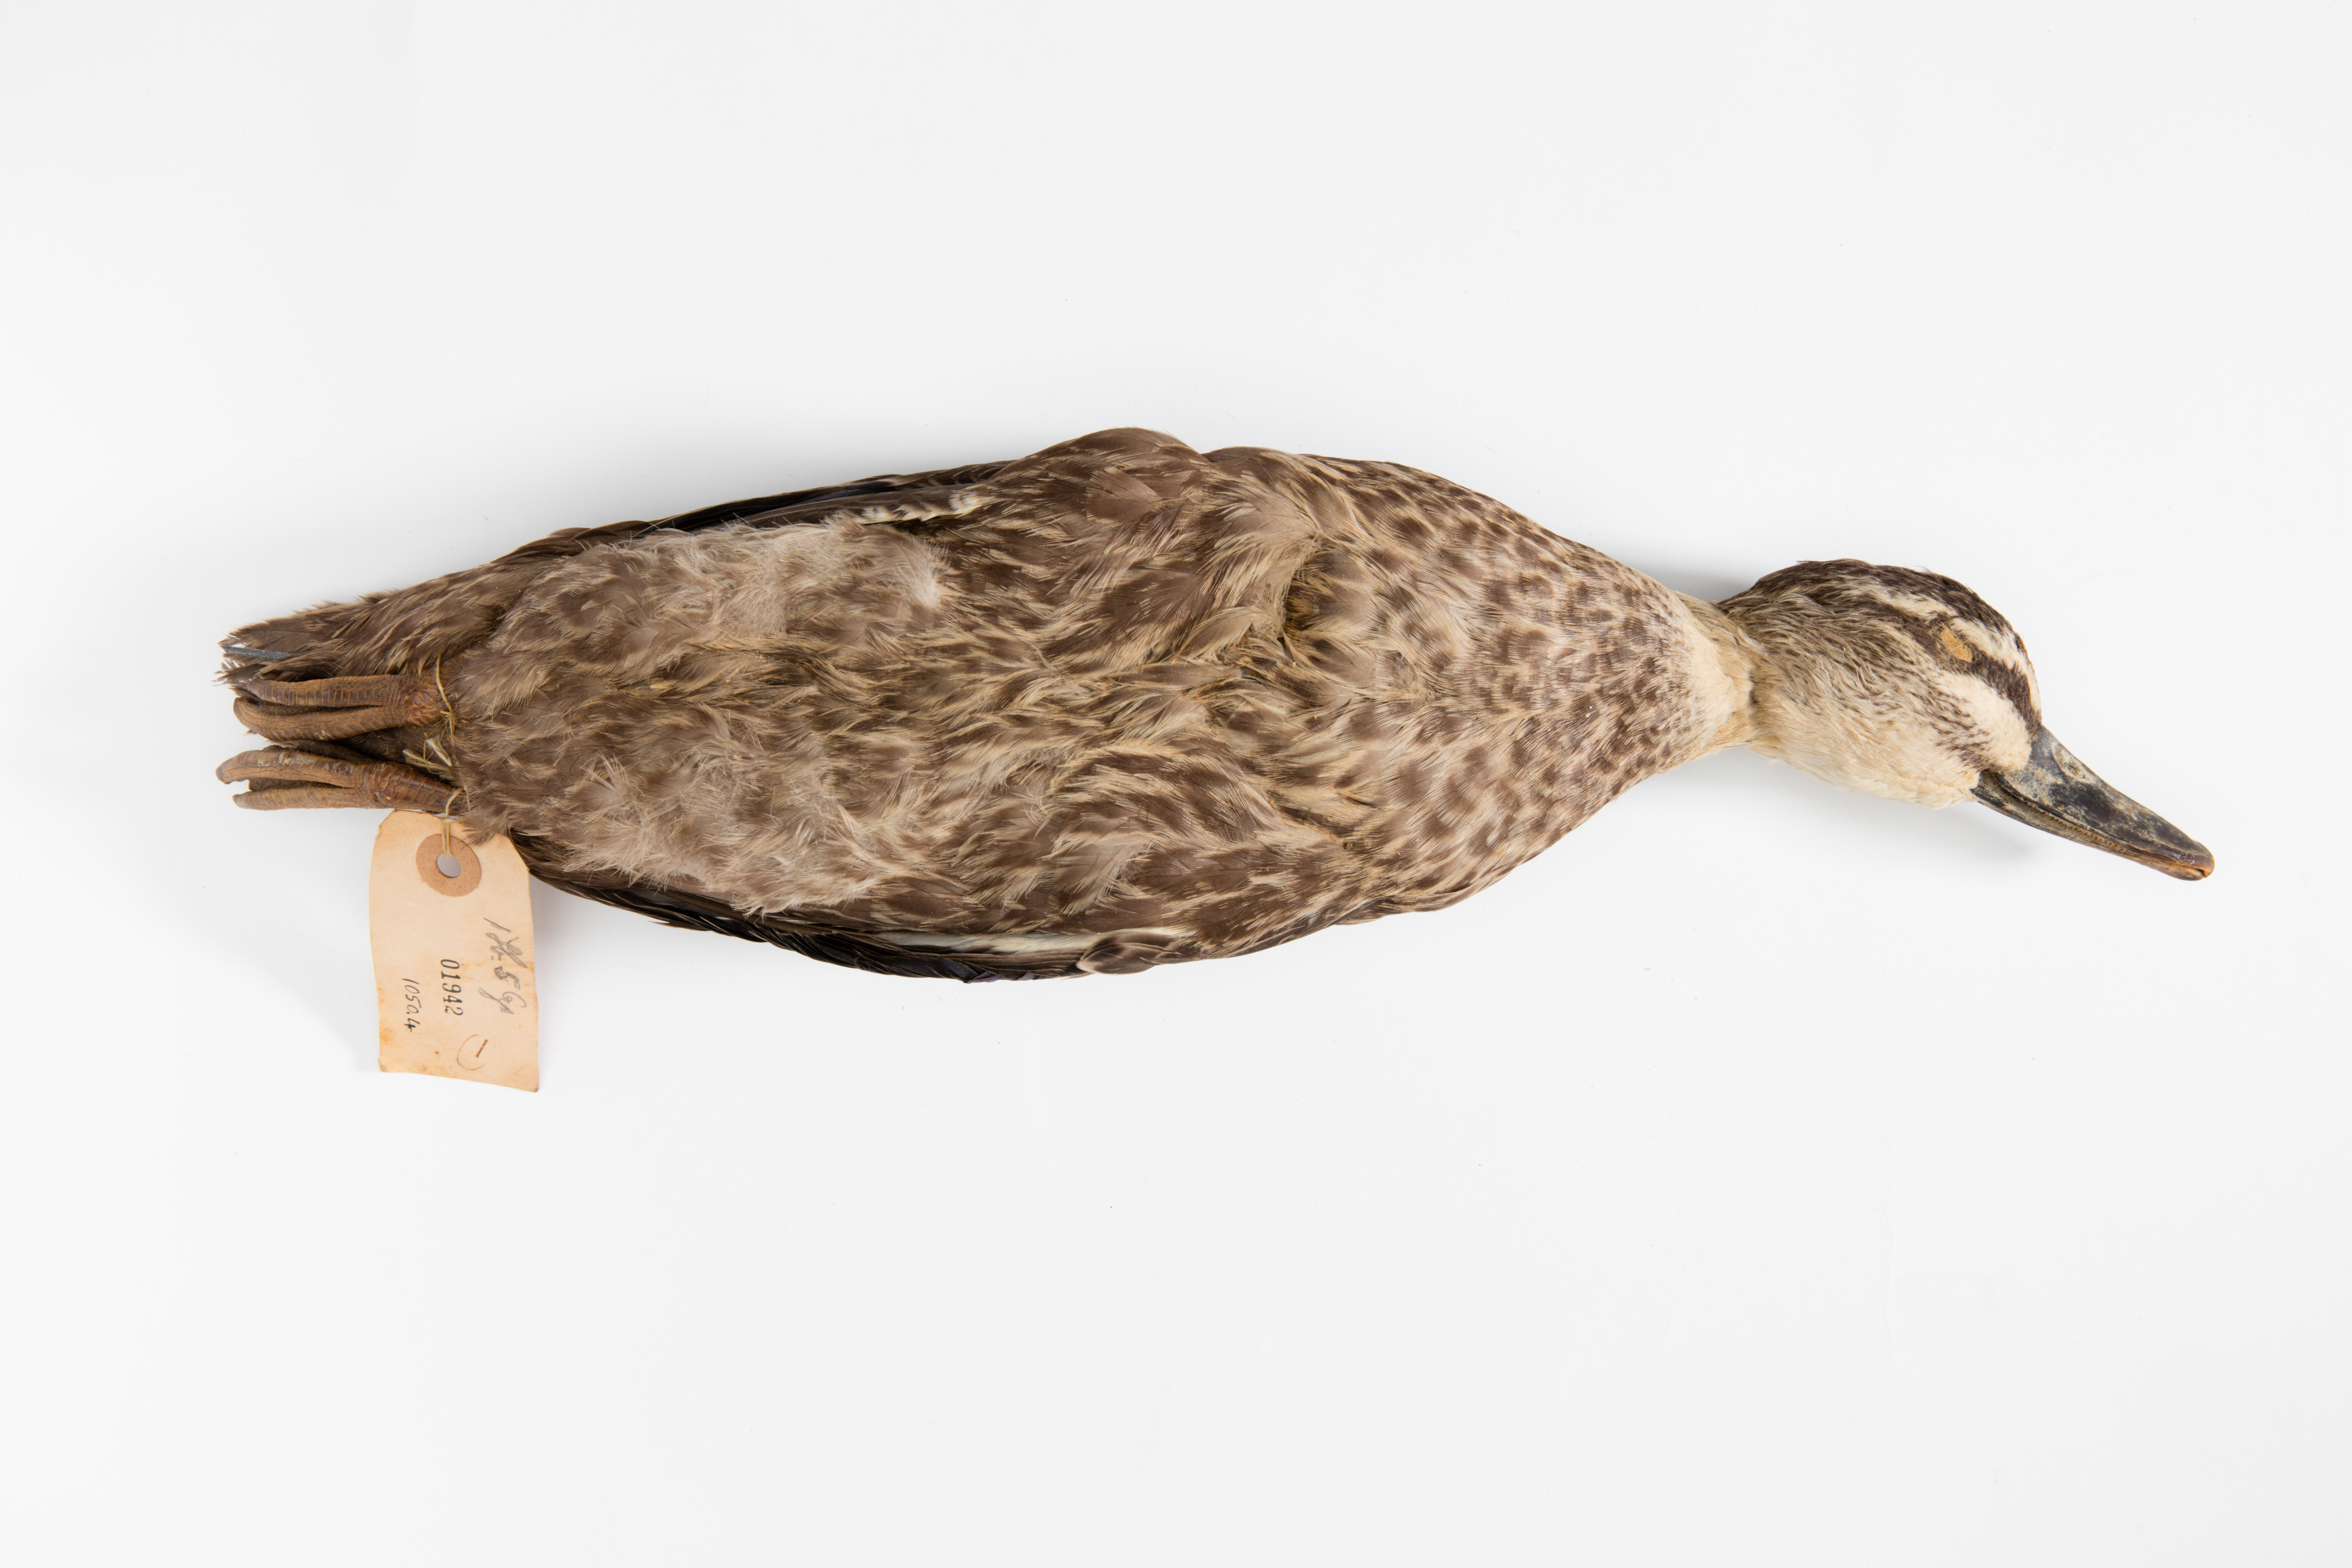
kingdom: Animalia
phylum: Chordata
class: Aves
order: Anseriformes
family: Anatidae
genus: Anas
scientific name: Anas platyrhynchos
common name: Mallard
